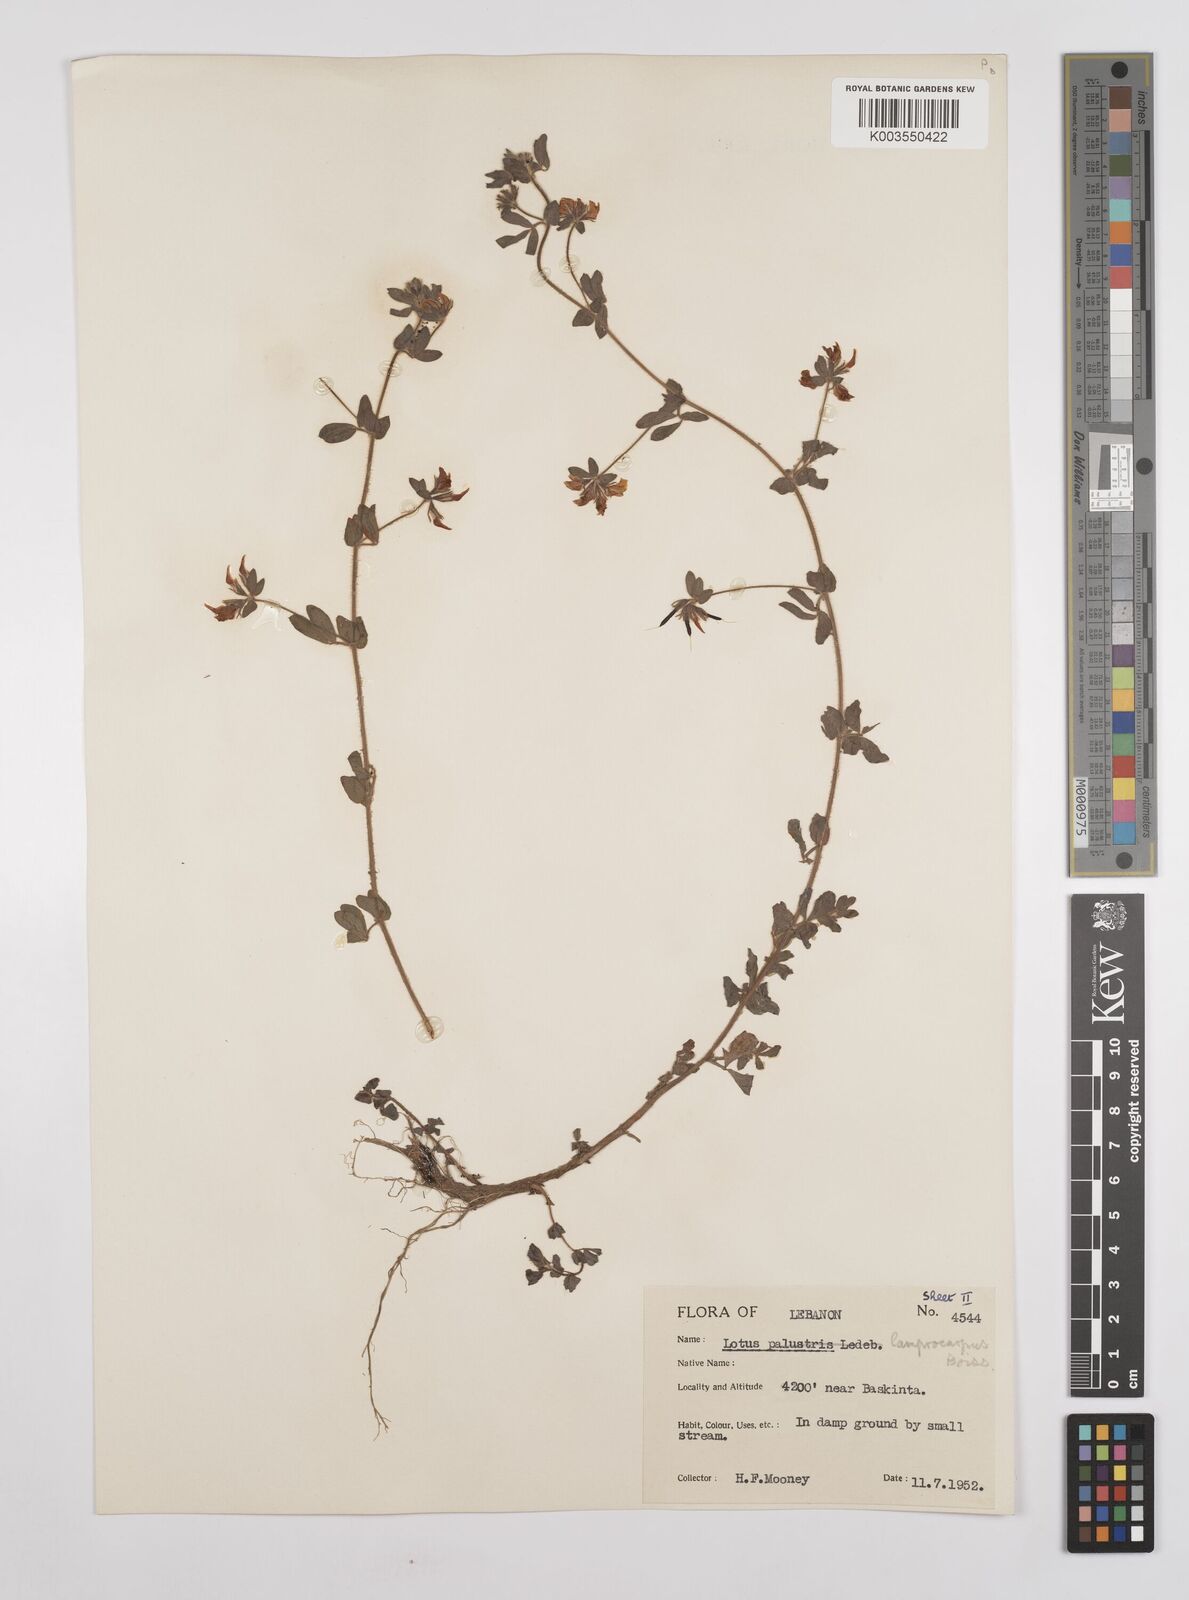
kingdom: Plantae
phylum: Tracheophyta
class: Magnoliopsida
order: Fabales
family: Fabaceae
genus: Lotus
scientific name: Lotus palustris
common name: Large birds-foot trefoil
